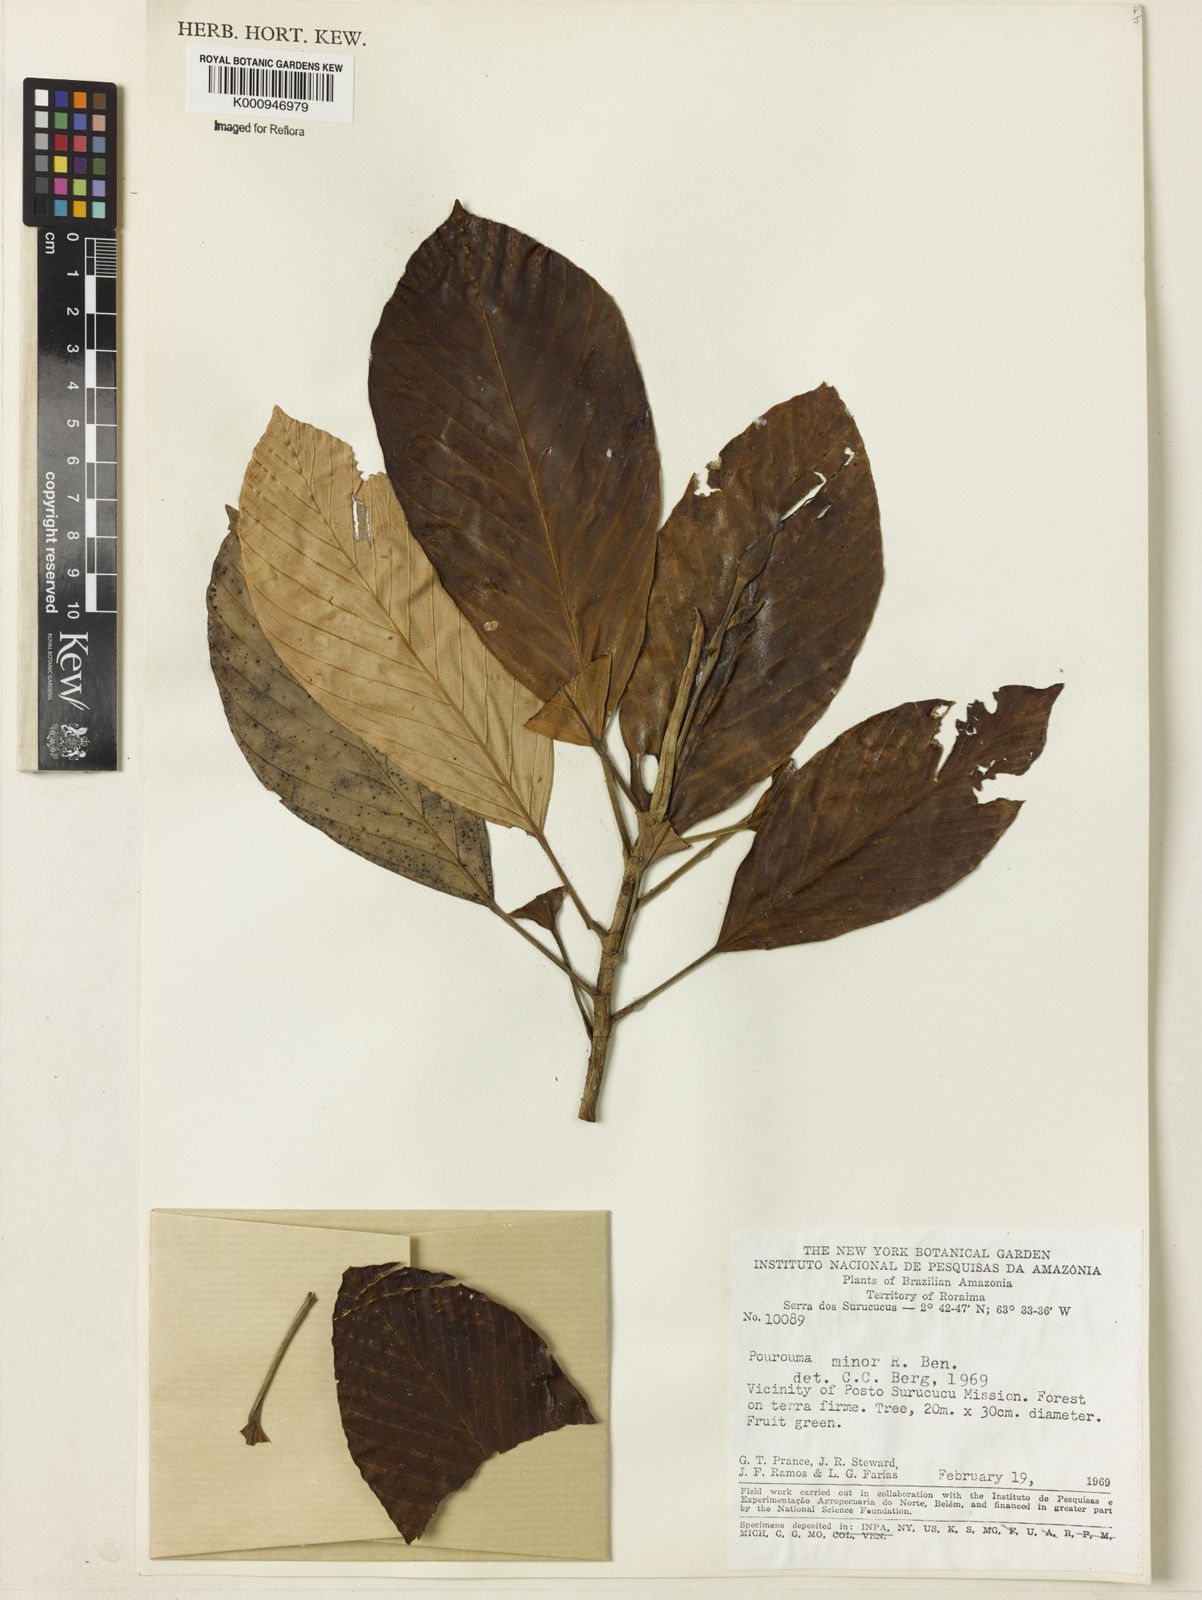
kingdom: Plantae
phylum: Tracheophyta
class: Magnoliopsida
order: Rosales
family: Urticaceae
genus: Pourouma
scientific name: Pourouma minor
